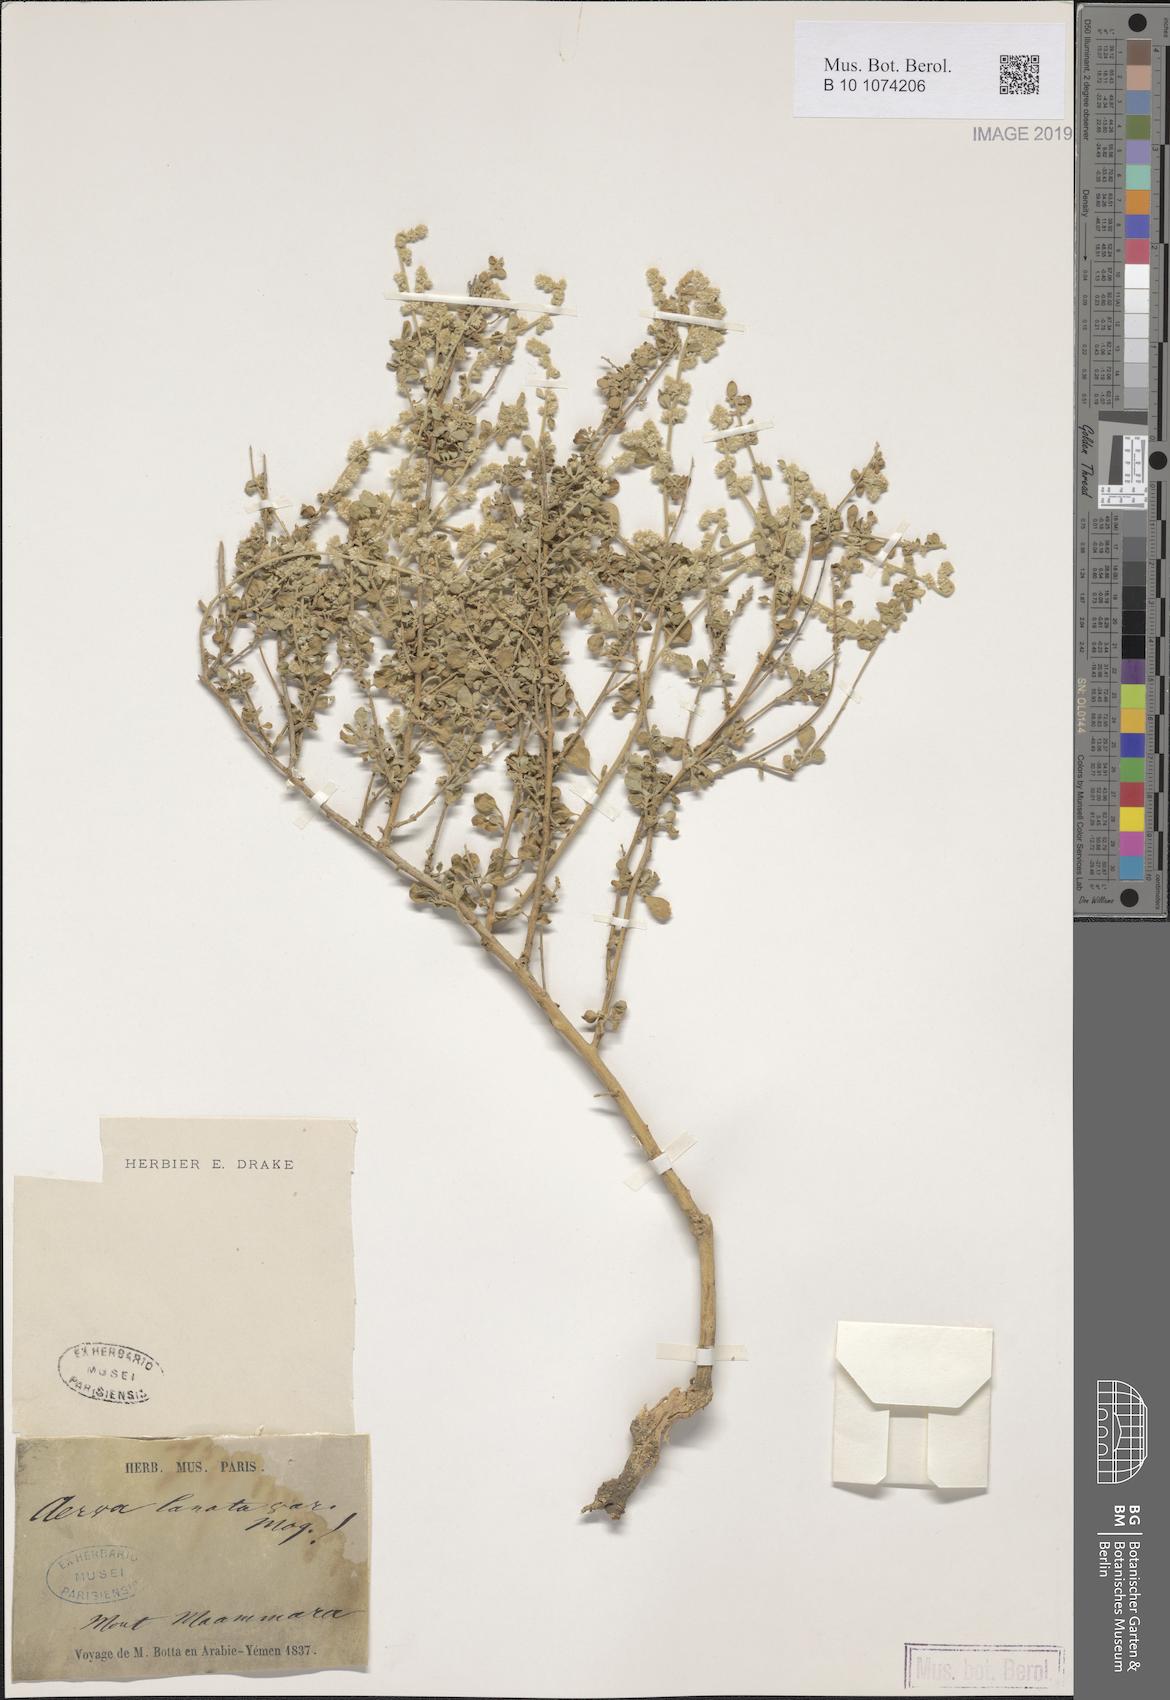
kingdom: Plantae
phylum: Tracheophyta
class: Magnoliopsida
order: Caryophyllales
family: Amaranthaceae
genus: Ouret
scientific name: Ouret lanata
